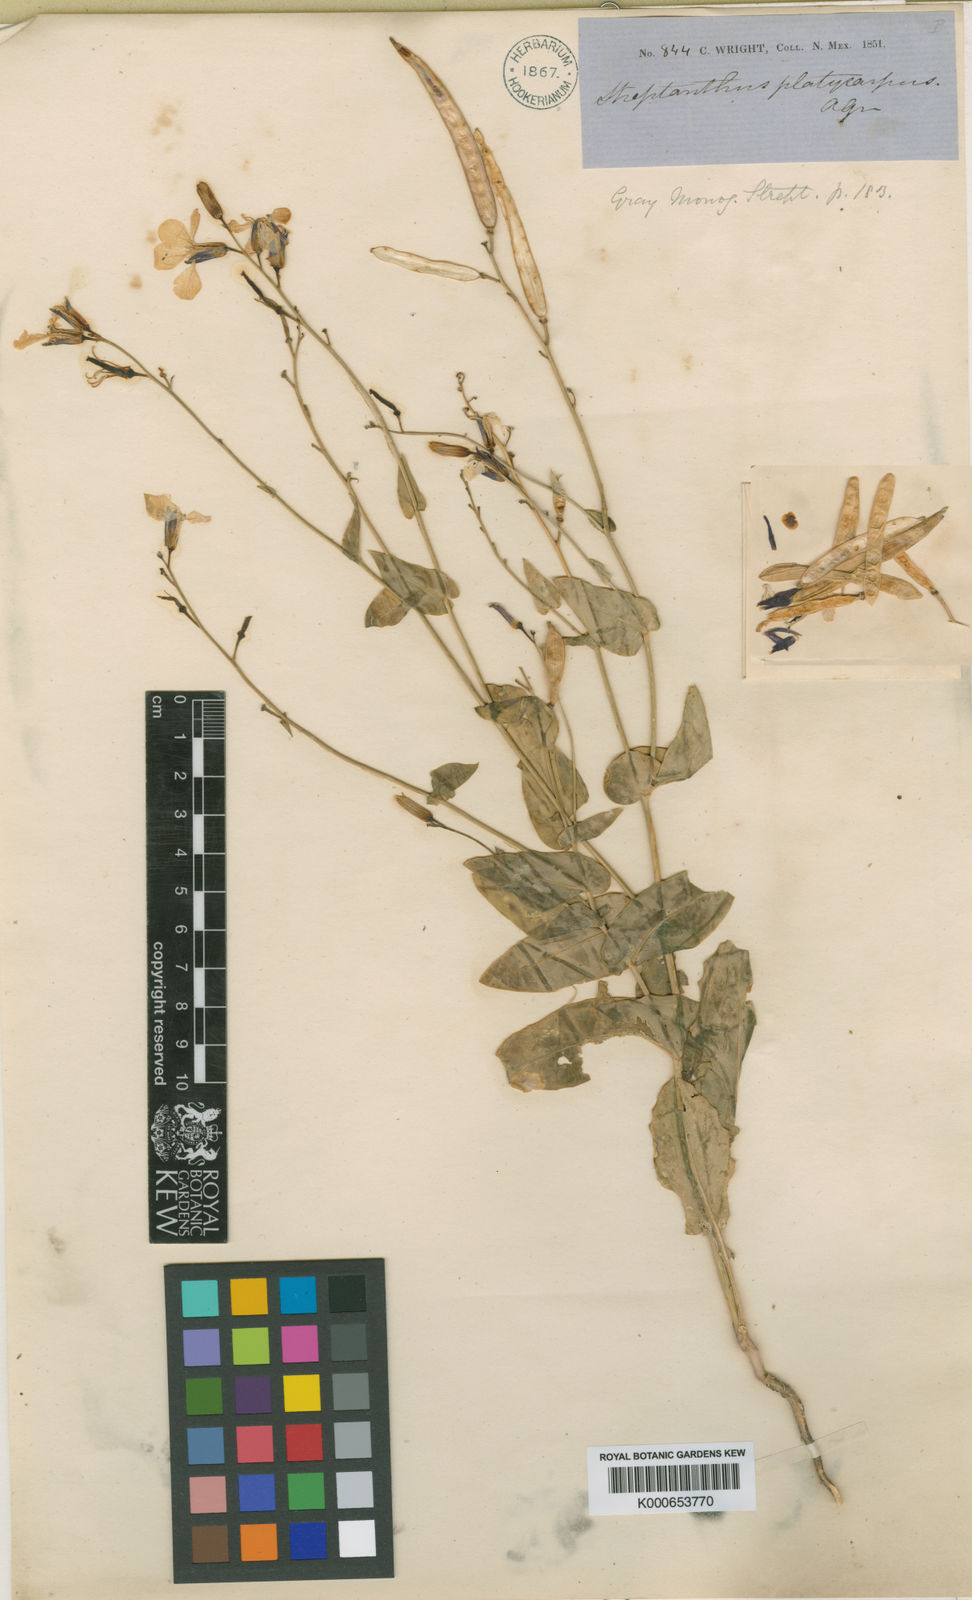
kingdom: Plantae
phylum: Tracheophyta
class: Magnoliopsida
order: Brassicales
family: Brassicaceae
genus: Streptanthus
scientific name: Streptanthus platycarpus
